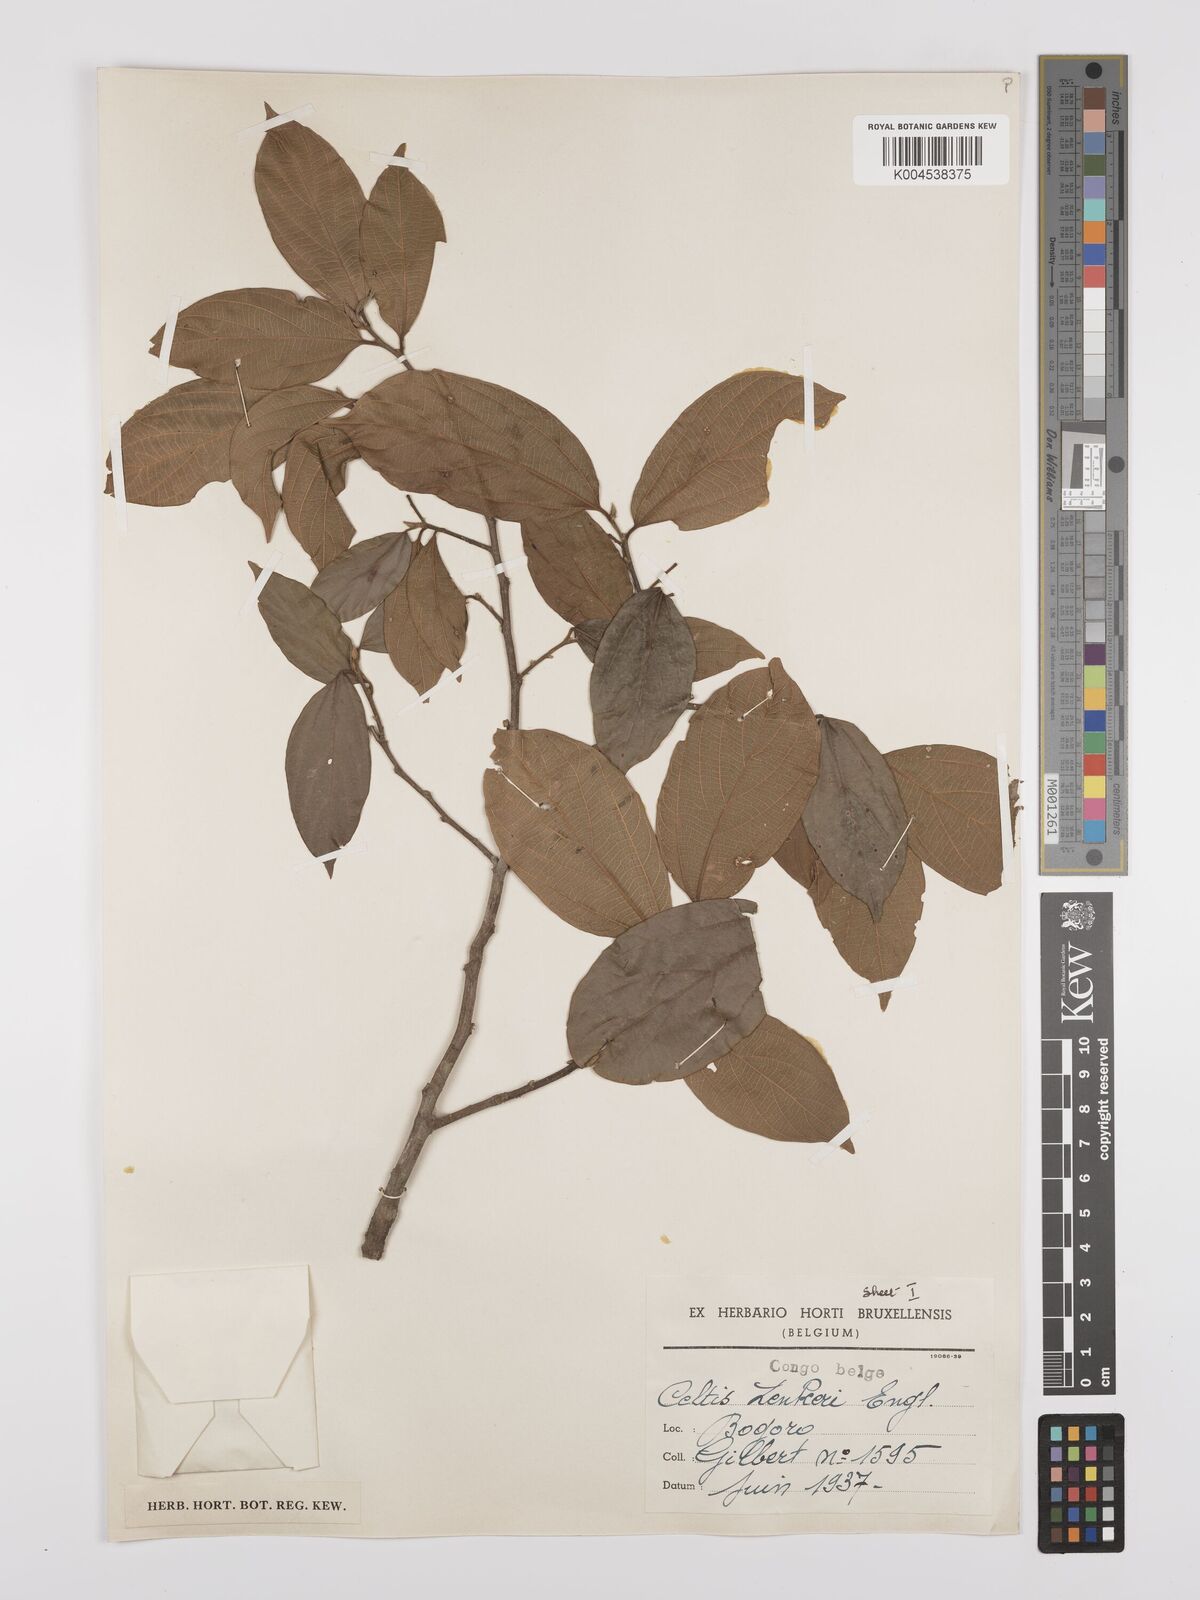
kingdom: Plantae
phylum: Tracheophyta
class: Magnoliopsida
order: Rosales
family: Cannabaceae
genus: Celtis
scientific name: Celtis zenkeri
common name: African celtis
